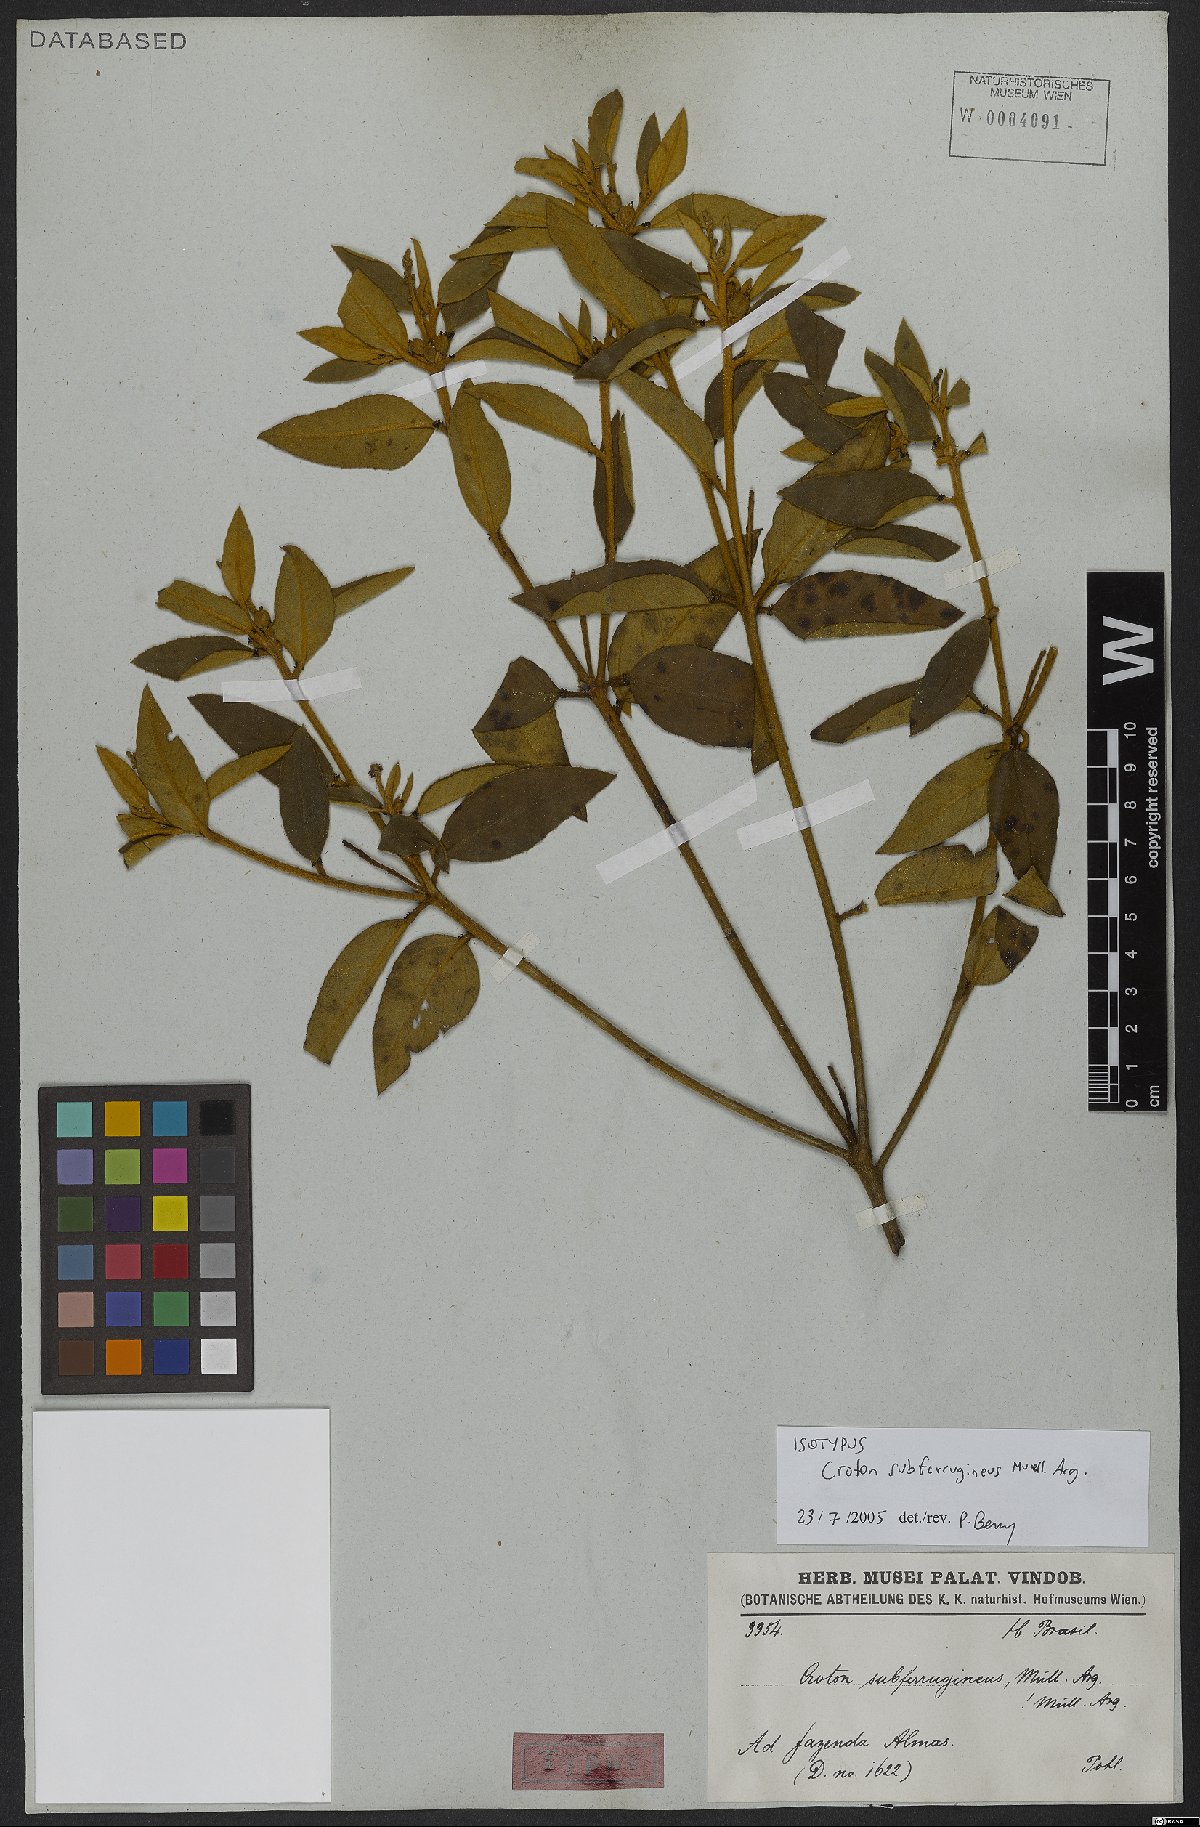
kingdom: Plantae
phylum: Tracheophyta
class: Magnoliopsida
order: Malpighiales
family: Euphorbiaceae
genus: Croton
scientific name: Croton subferrugineus
